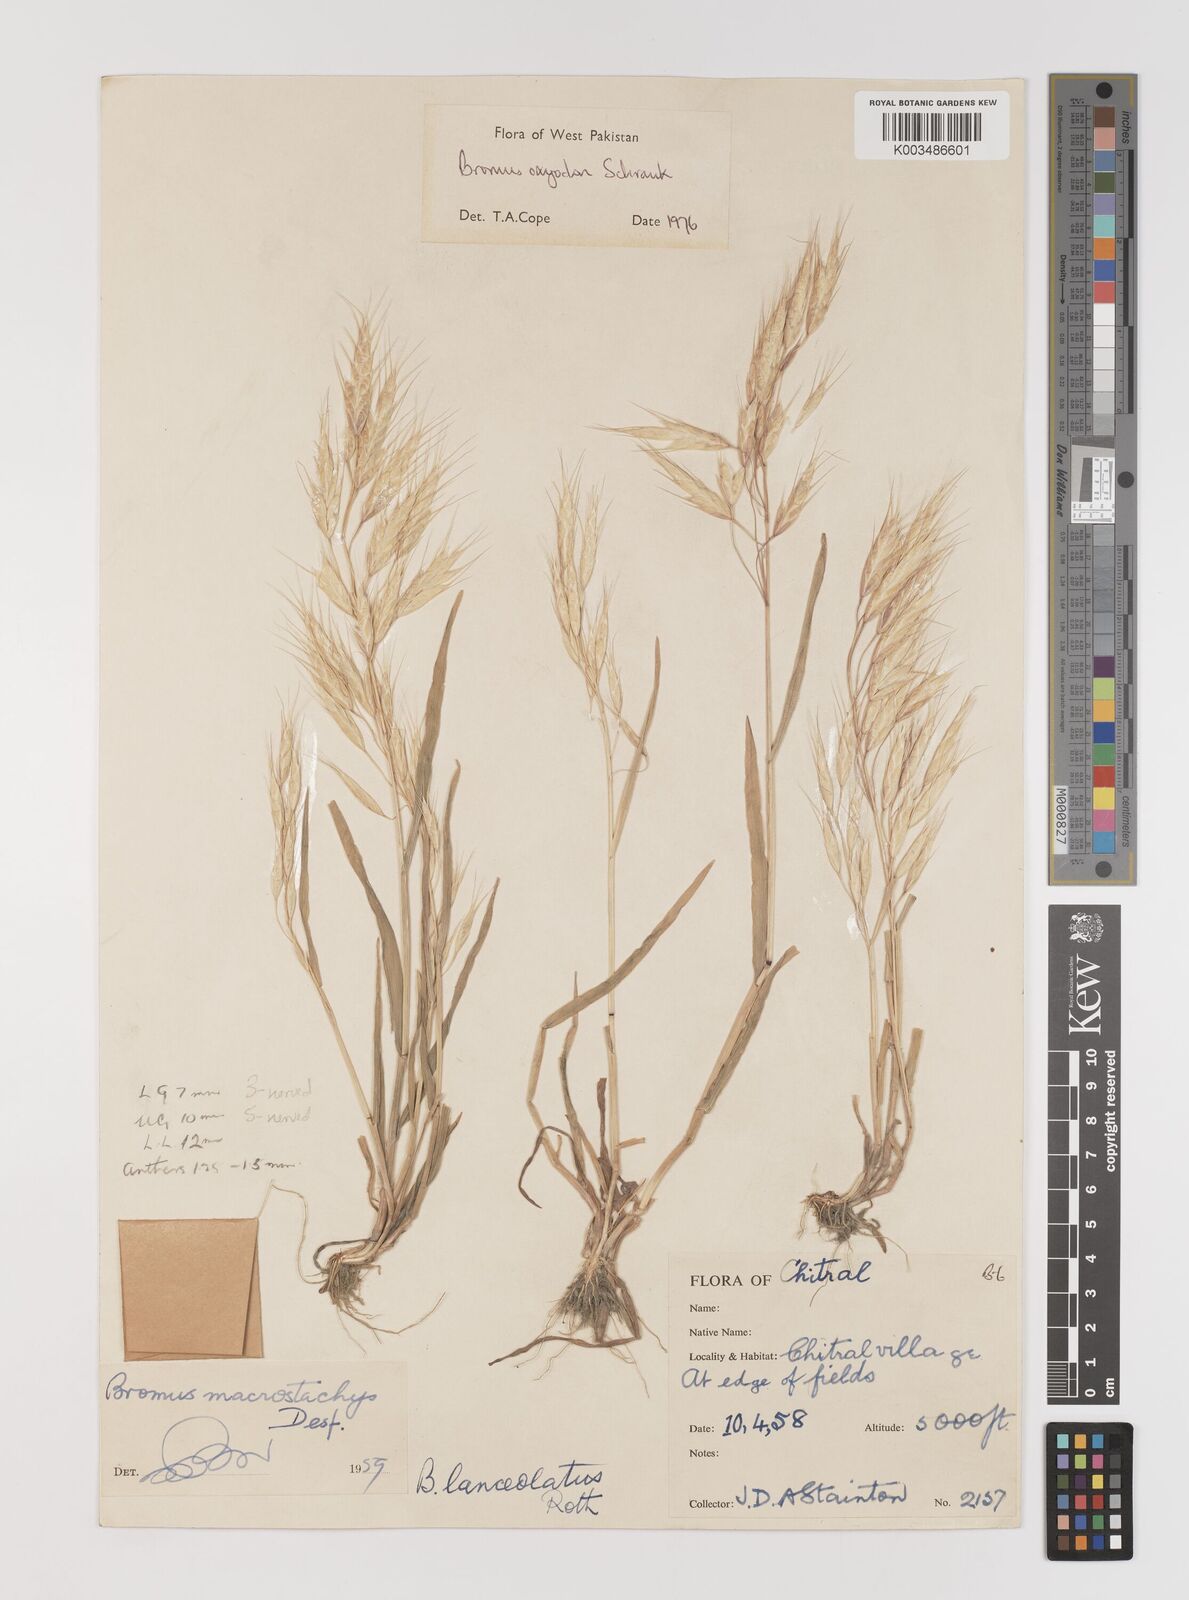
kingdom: Plantae
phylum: Tracheophyta
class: Liliopsida
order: Poales
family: Poaceae
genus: Bromus
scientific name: Bromus oxyodon
